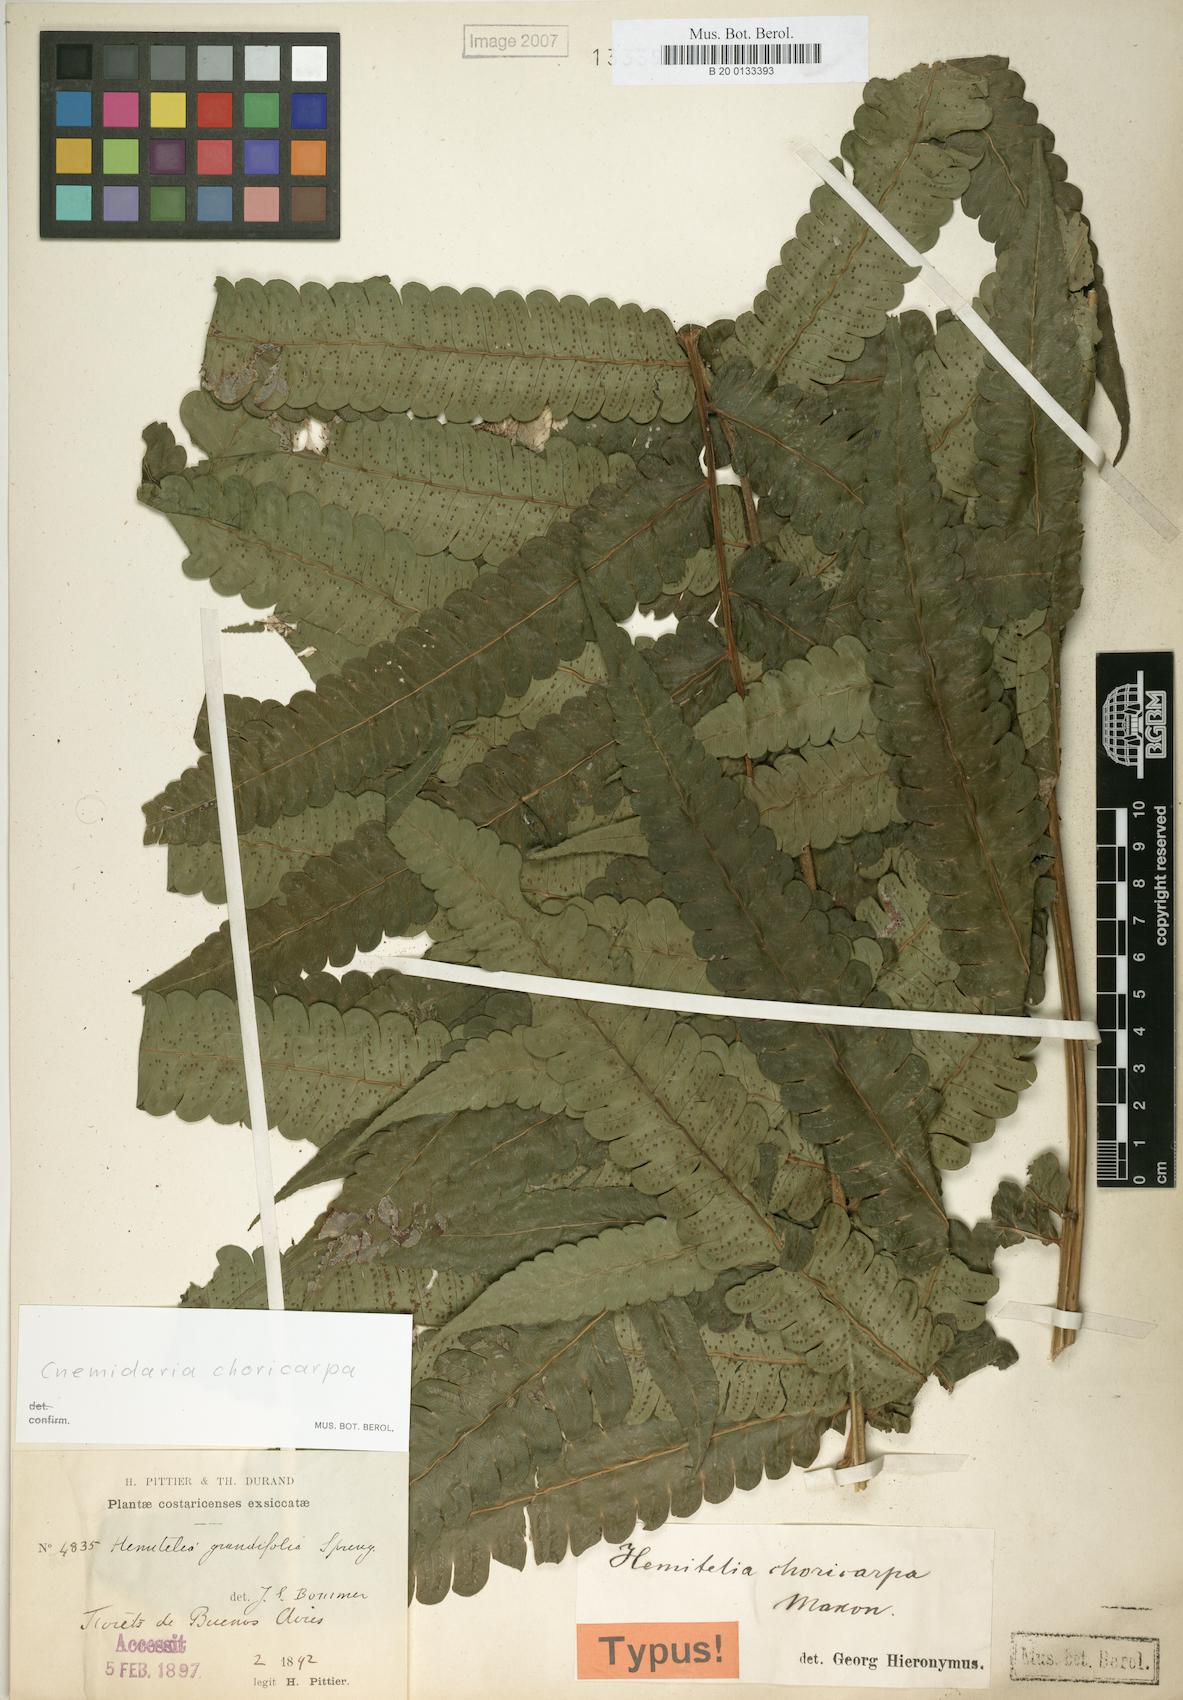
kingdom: Plantae
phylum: Tracheophyta
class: Polypodiopsida
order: Cyatheales
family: Cyatheaceae
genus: Cyathea
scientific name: Cyathea choricarpa
